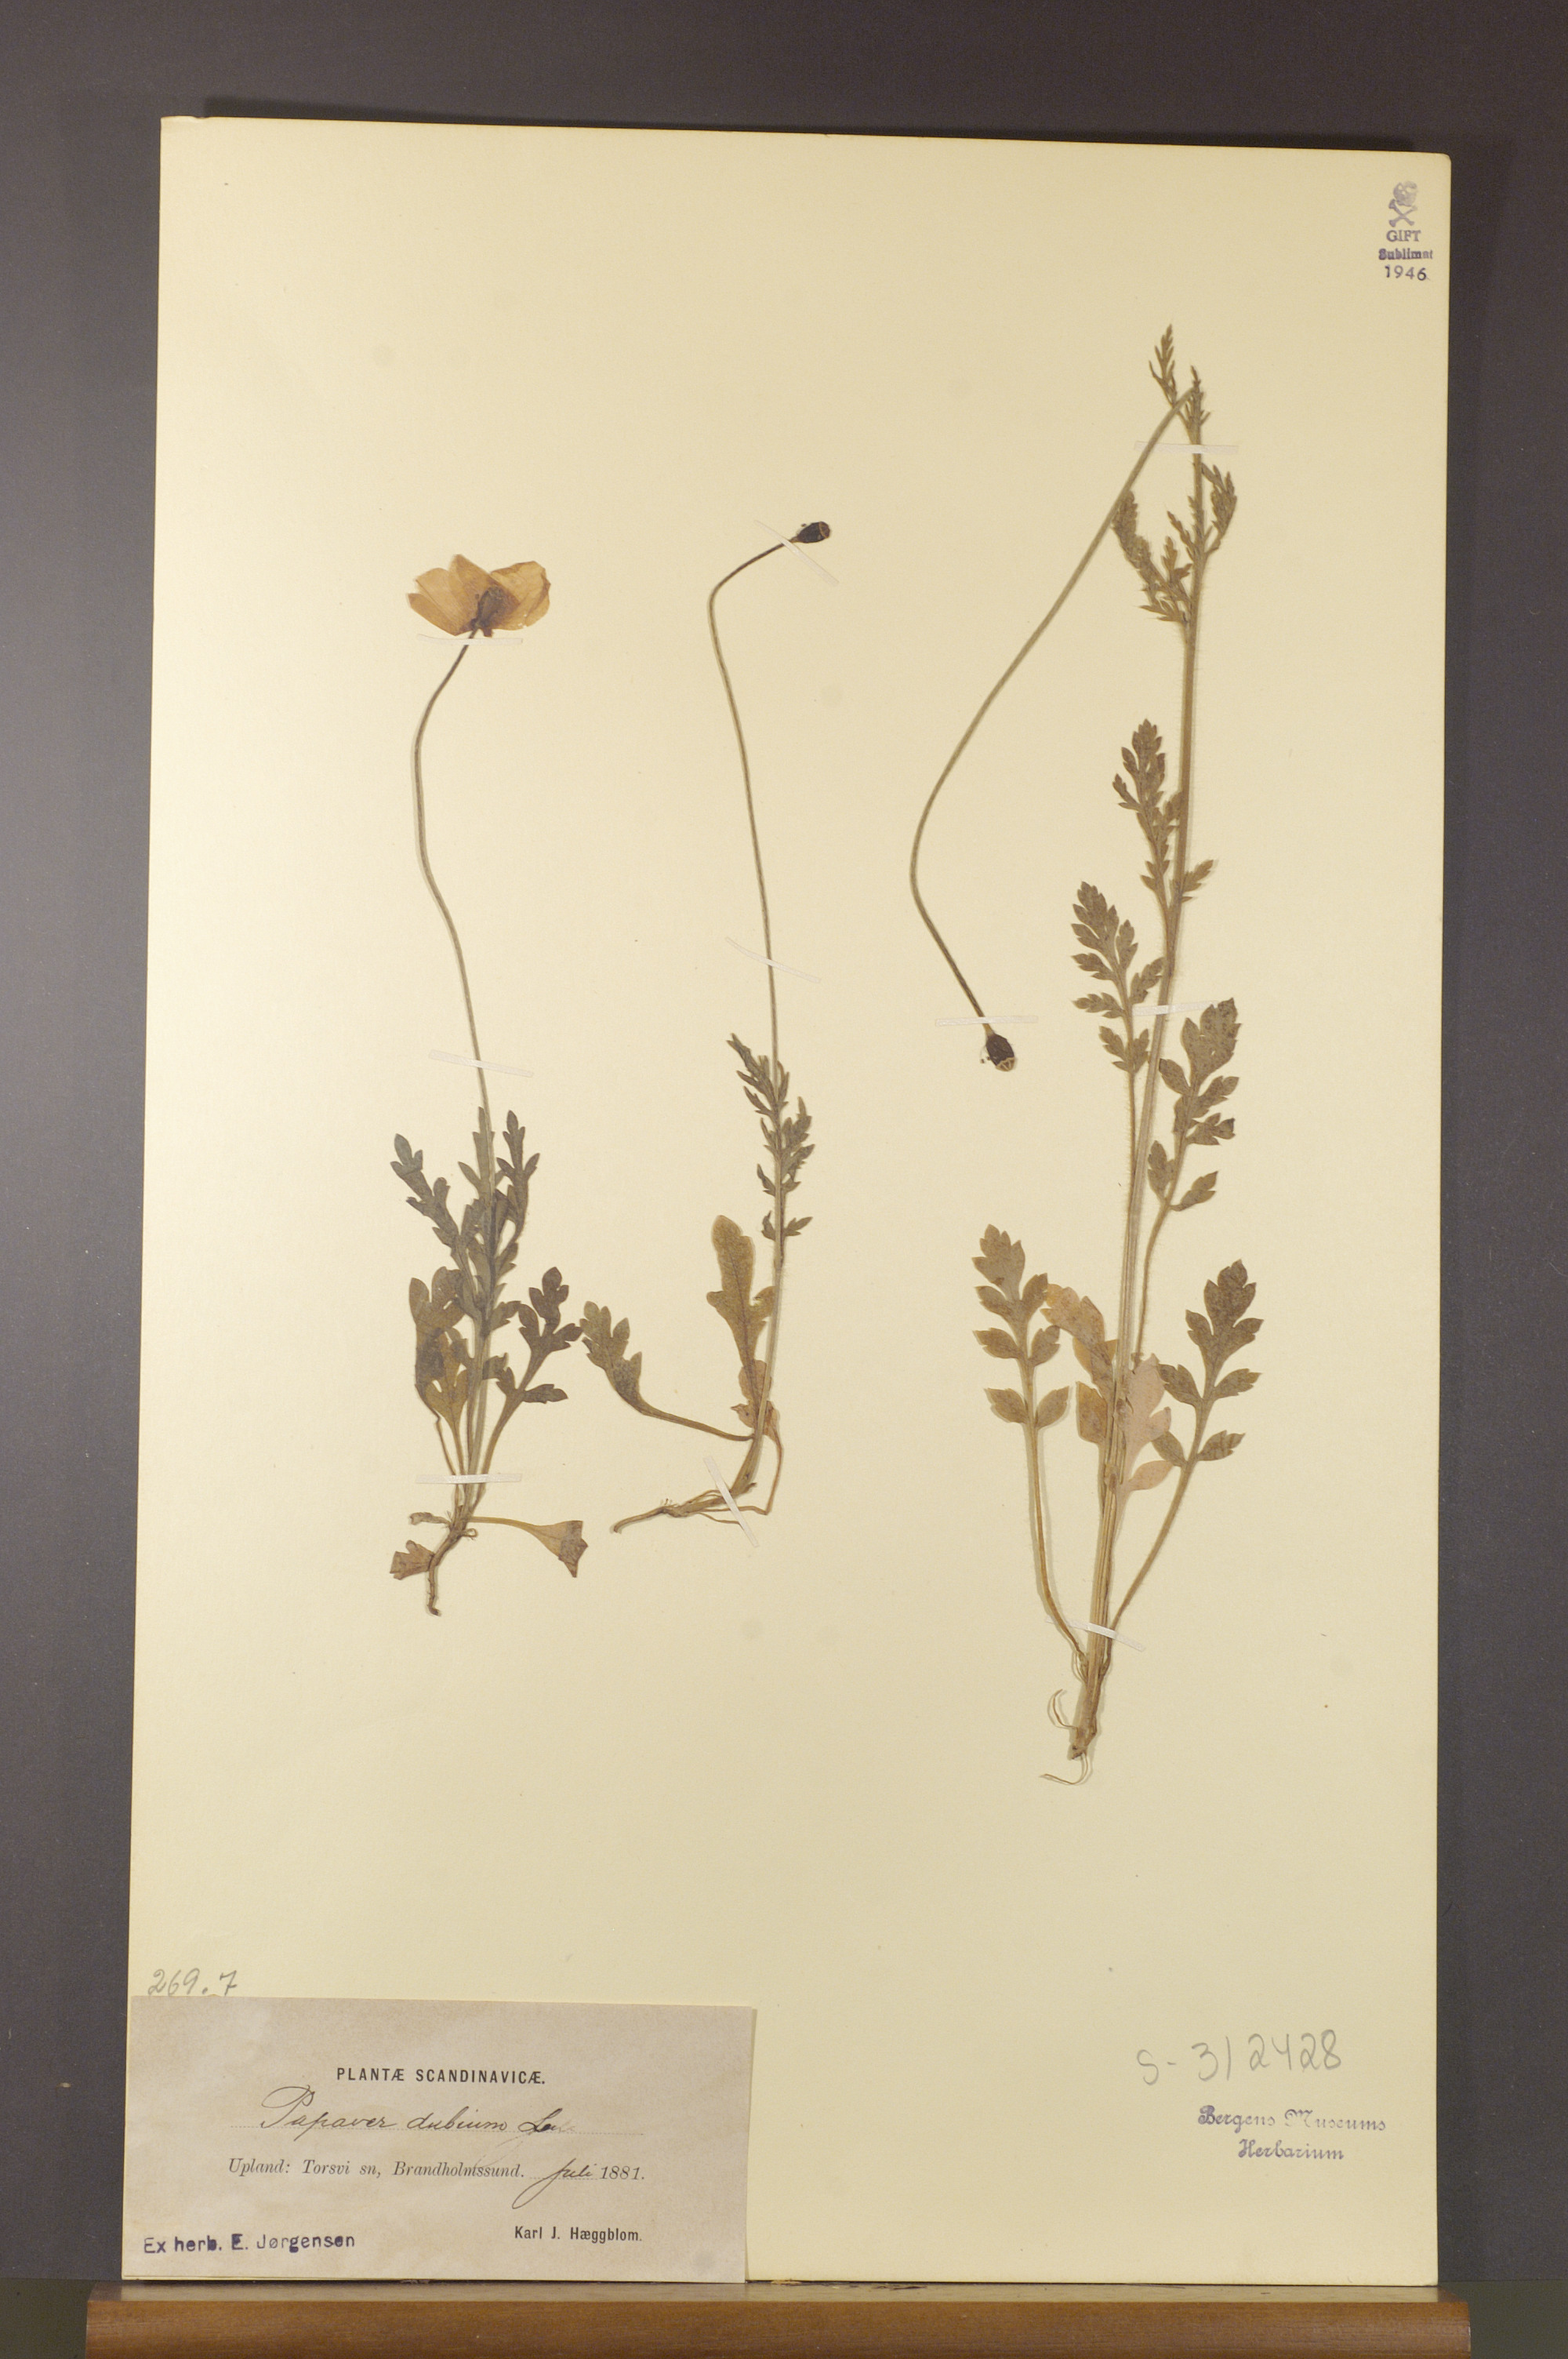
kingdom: Plantae
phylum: Tracheophyta
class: Magnoliopsida
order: Ranunculales
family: Papaveraceae
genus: Papaver
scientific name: Papaver dubium
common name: Long-headed poppy
